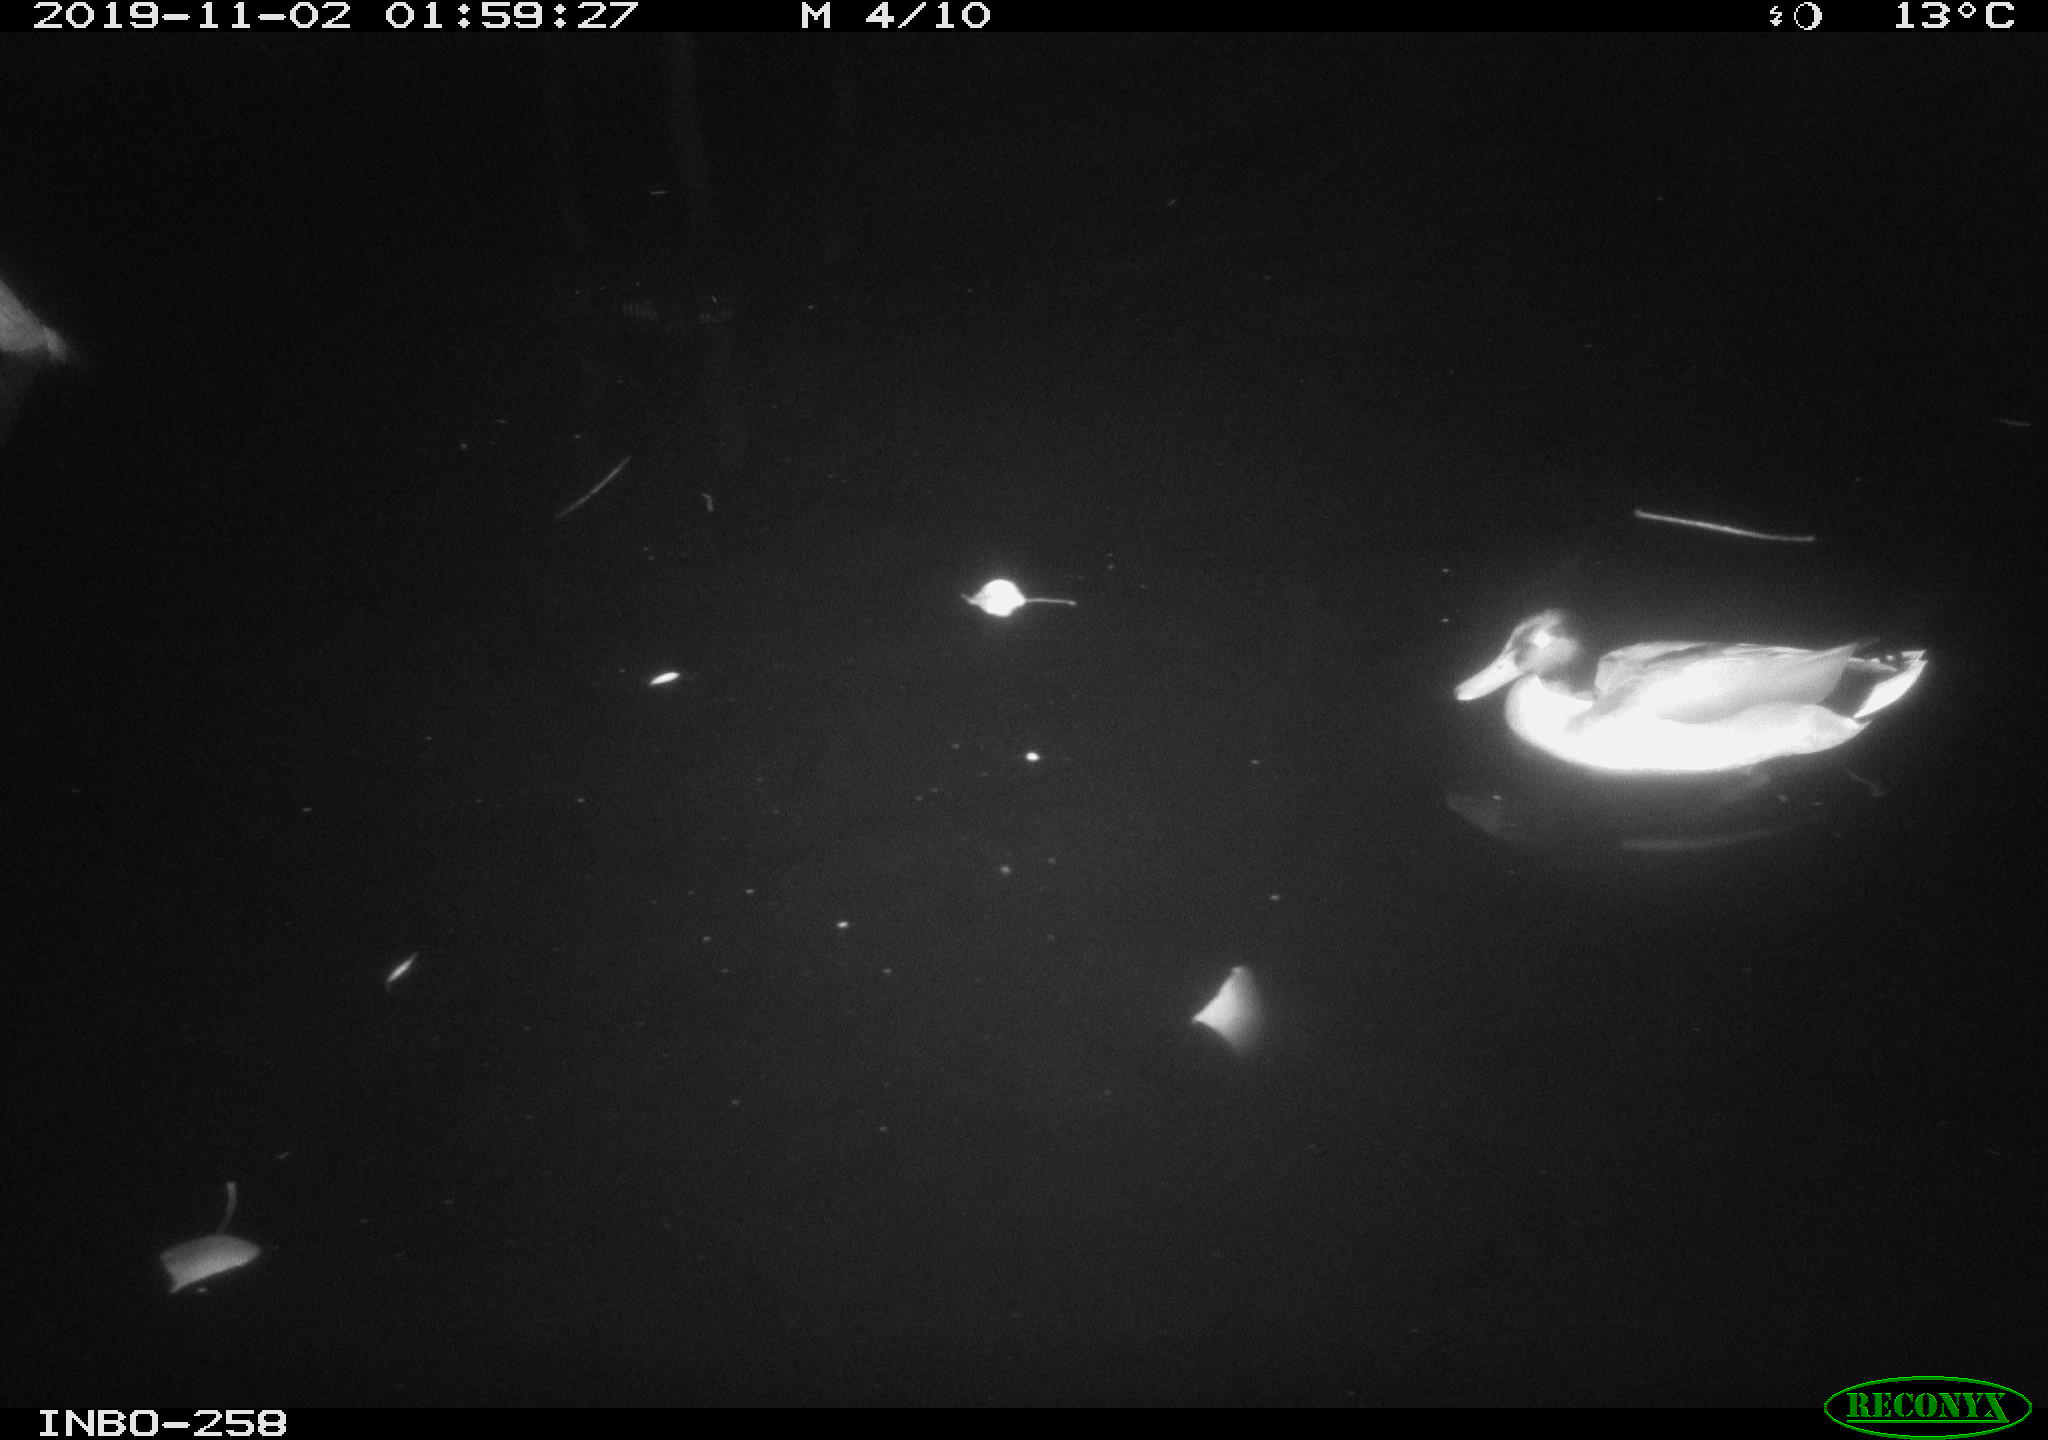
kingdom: Animalia
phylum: Chordata
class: Aves
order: Anseriformes
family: Anatidae
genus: Anas
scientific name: Anas platyrhynchos
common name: Mallard
